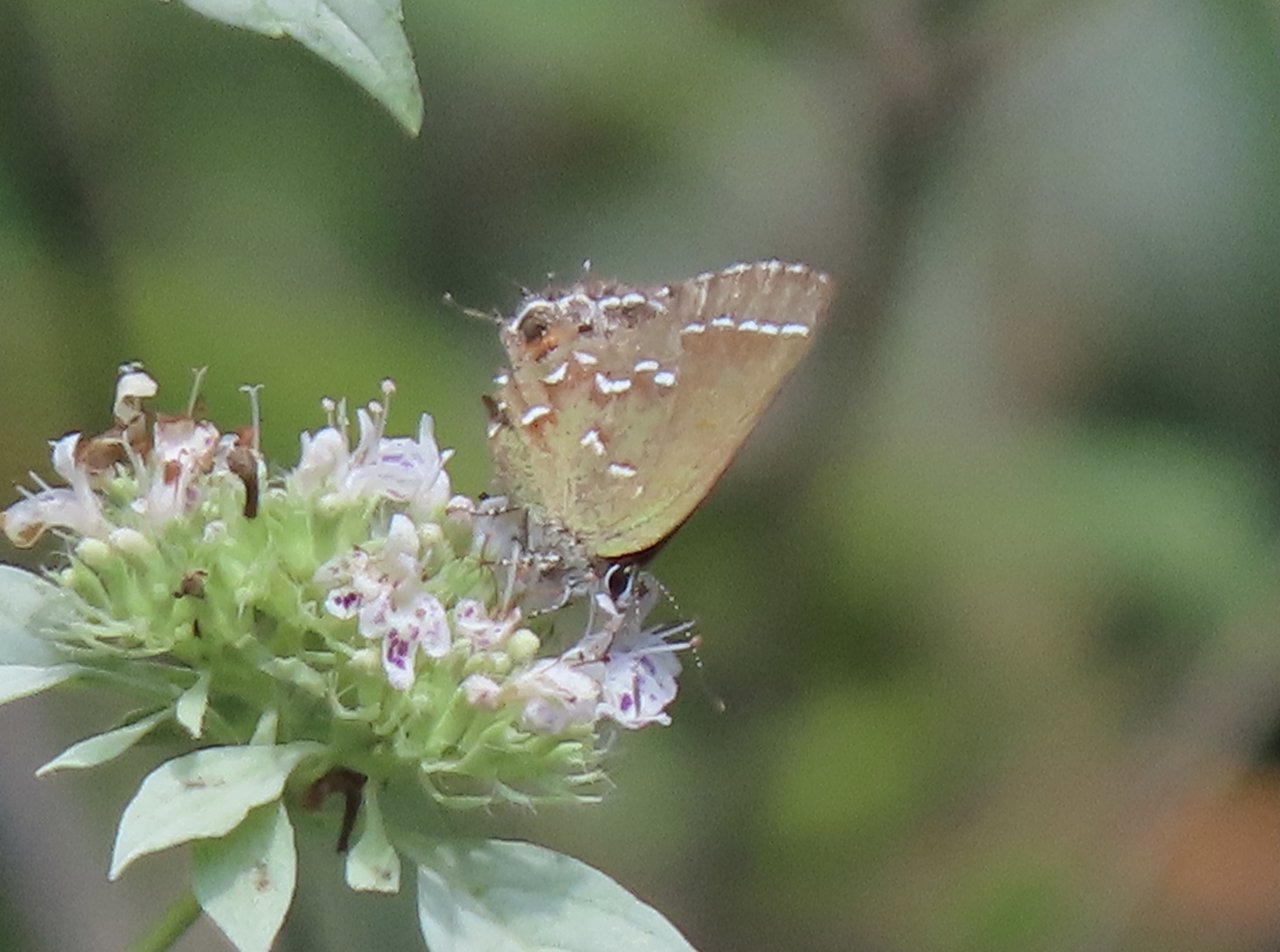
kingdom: Animalia
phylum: Arthropoda
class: Insecta
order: Lepidoptera
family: Lycaenidae
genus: Mitoura
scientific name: Mitoura gryneus
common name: Juniper Hairstreak
